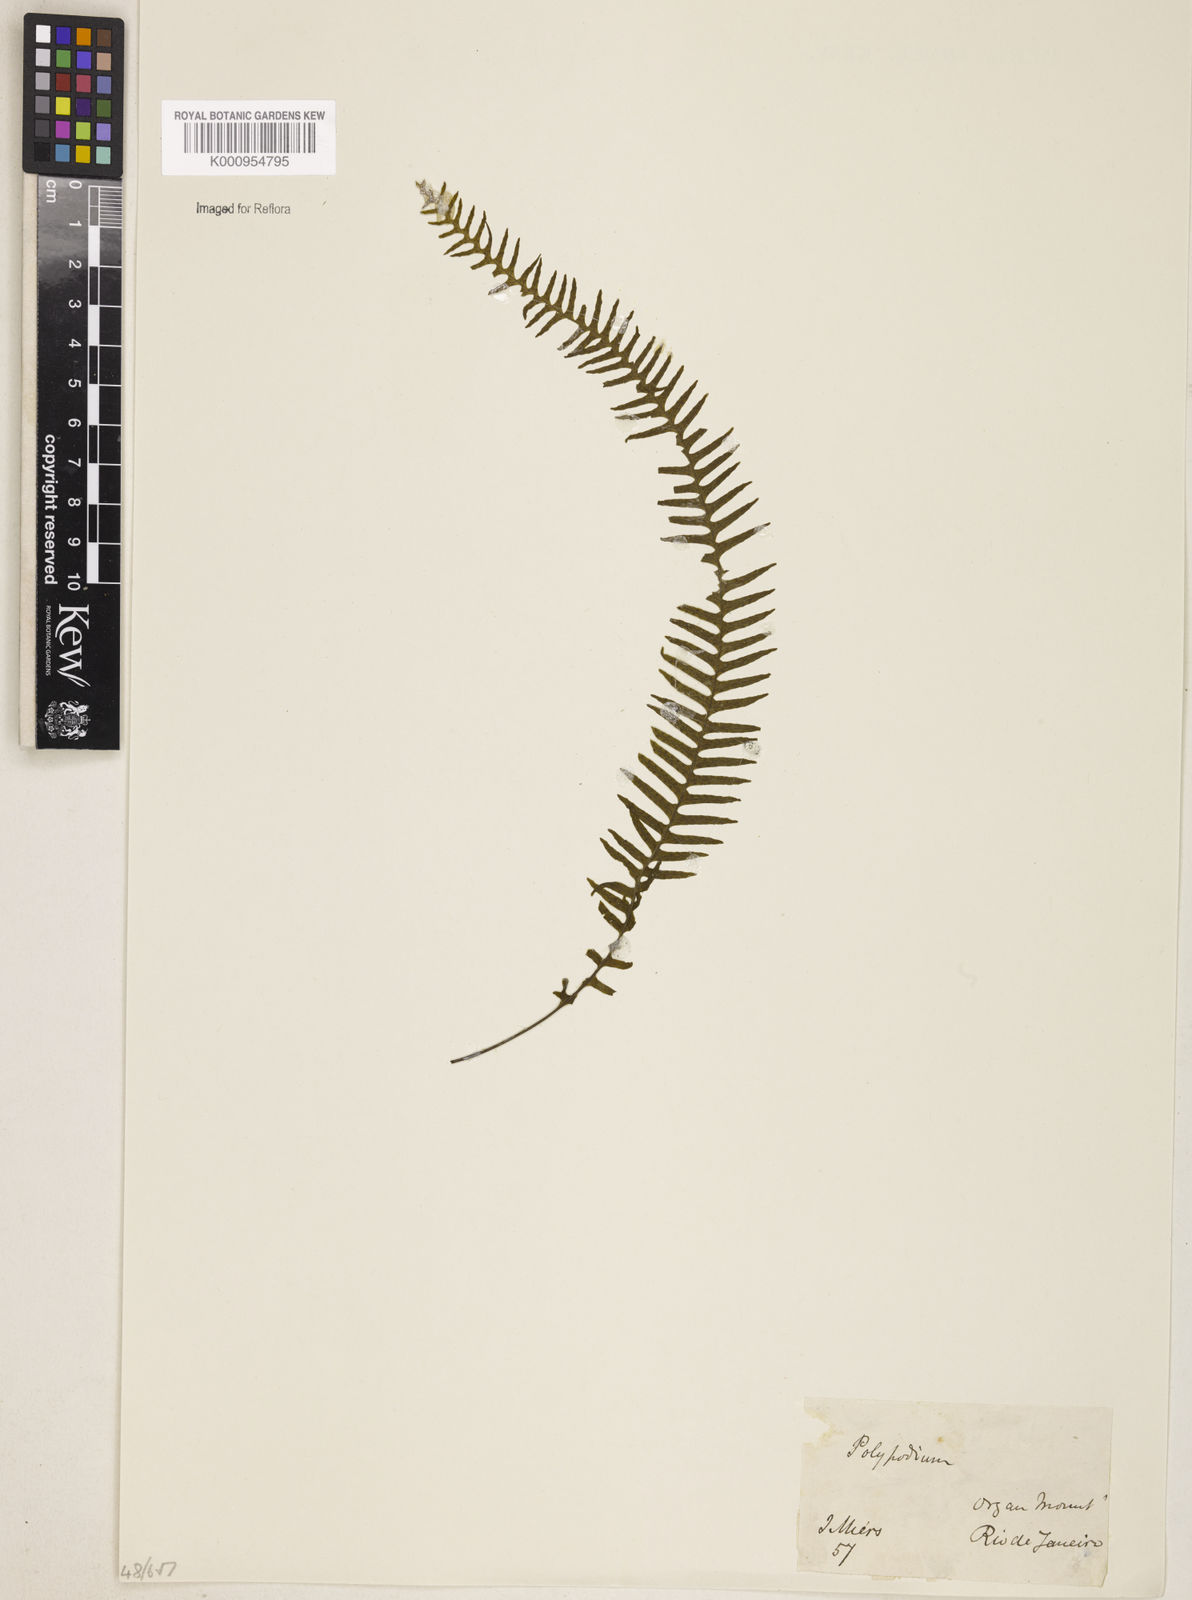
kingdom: Plantae
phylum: Tracheophyta
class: Polypodiopsida
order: Polypodiales
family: Polypodiaceae
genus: Pecluma
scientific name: Pecluma
